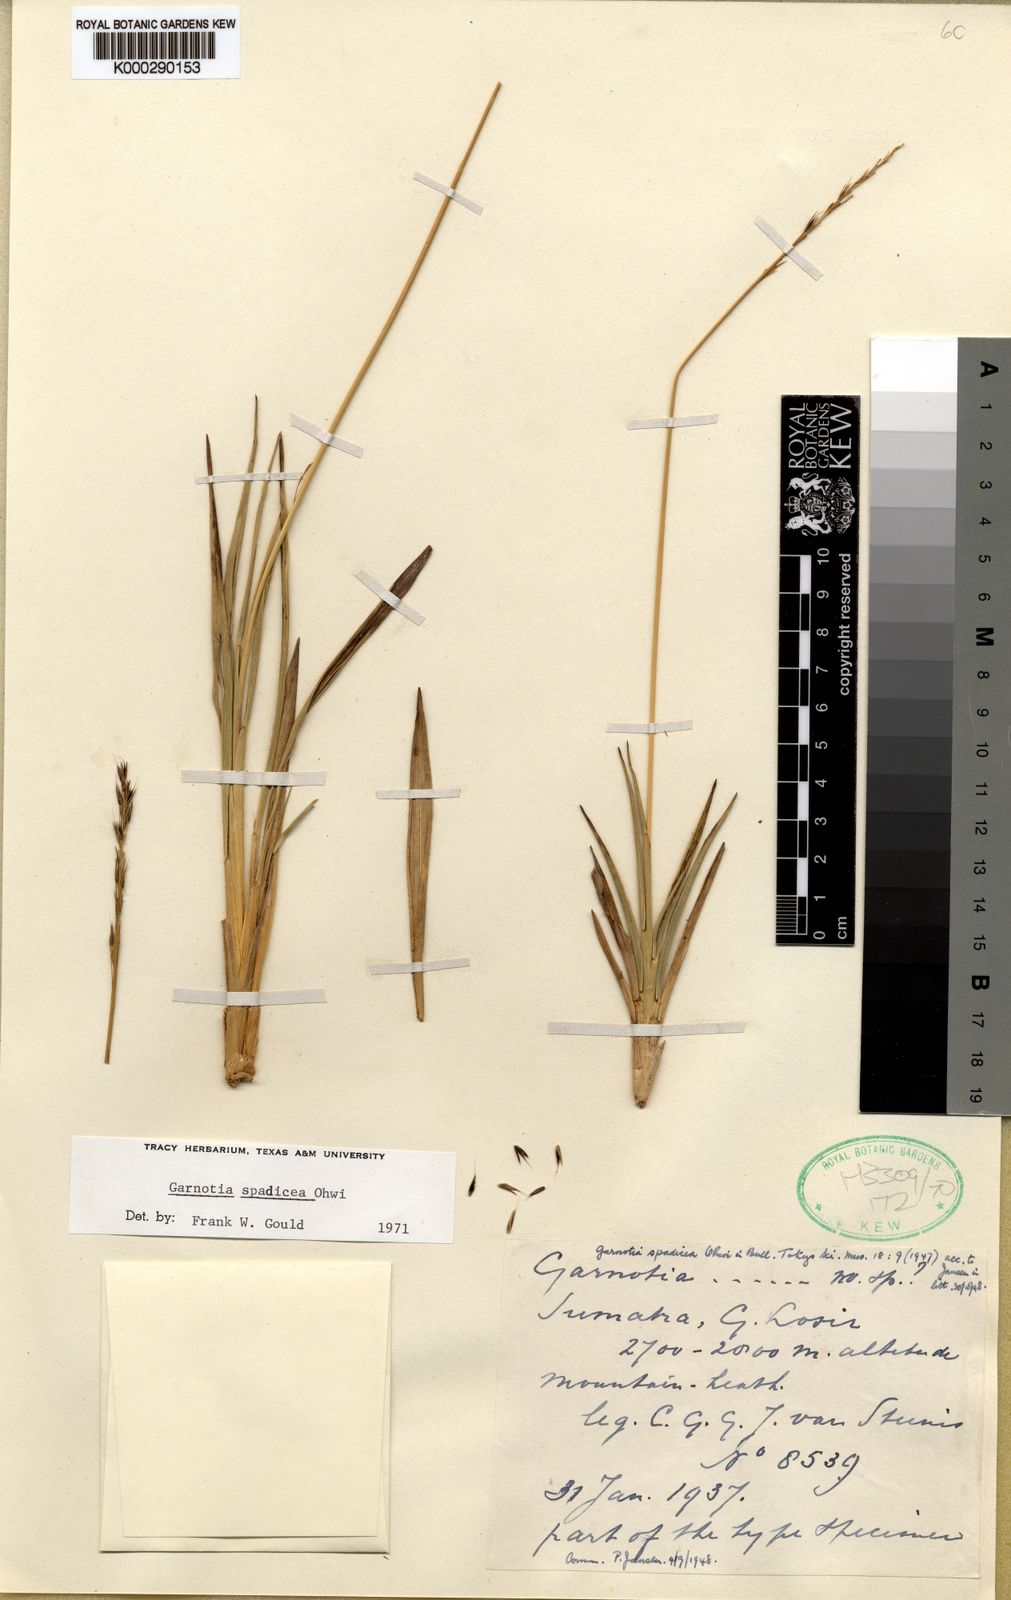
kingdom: Plantae
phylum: Tracheophyta
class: Liliopsida
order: Poales
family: Poaceae
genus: Garnotia
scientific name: Garnotia spadicea
